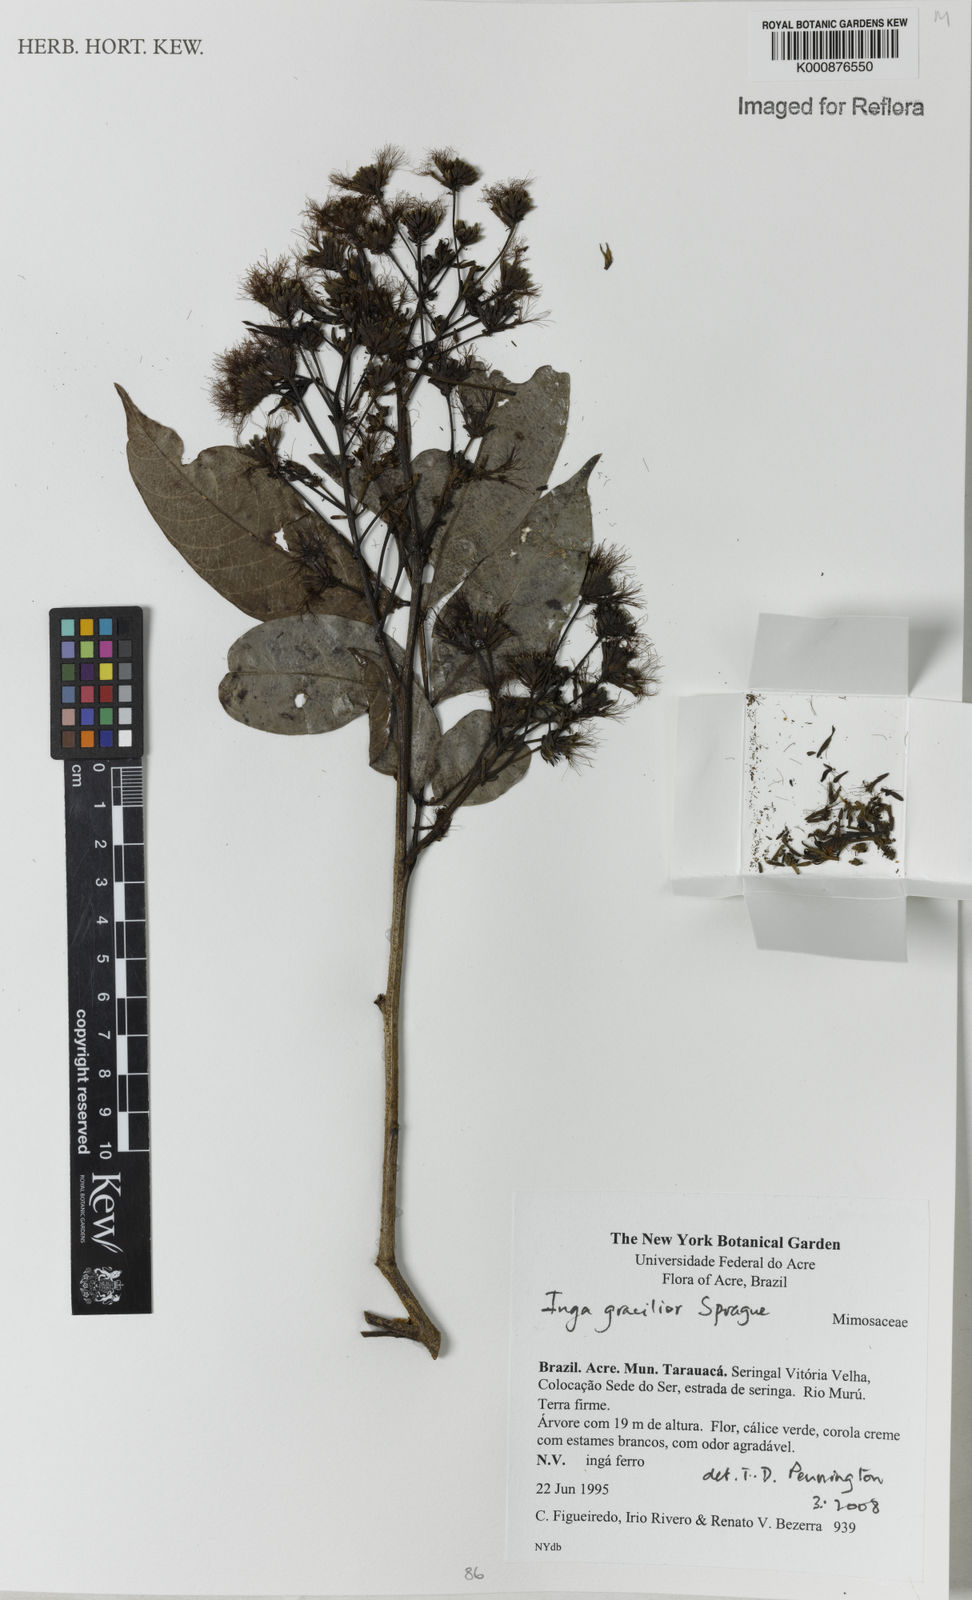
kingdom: Plantae
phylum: Tracheophyta
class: Magnoliopsida
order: Fabales
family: Fabaceae
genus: Inga
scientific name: Inga gracilior
